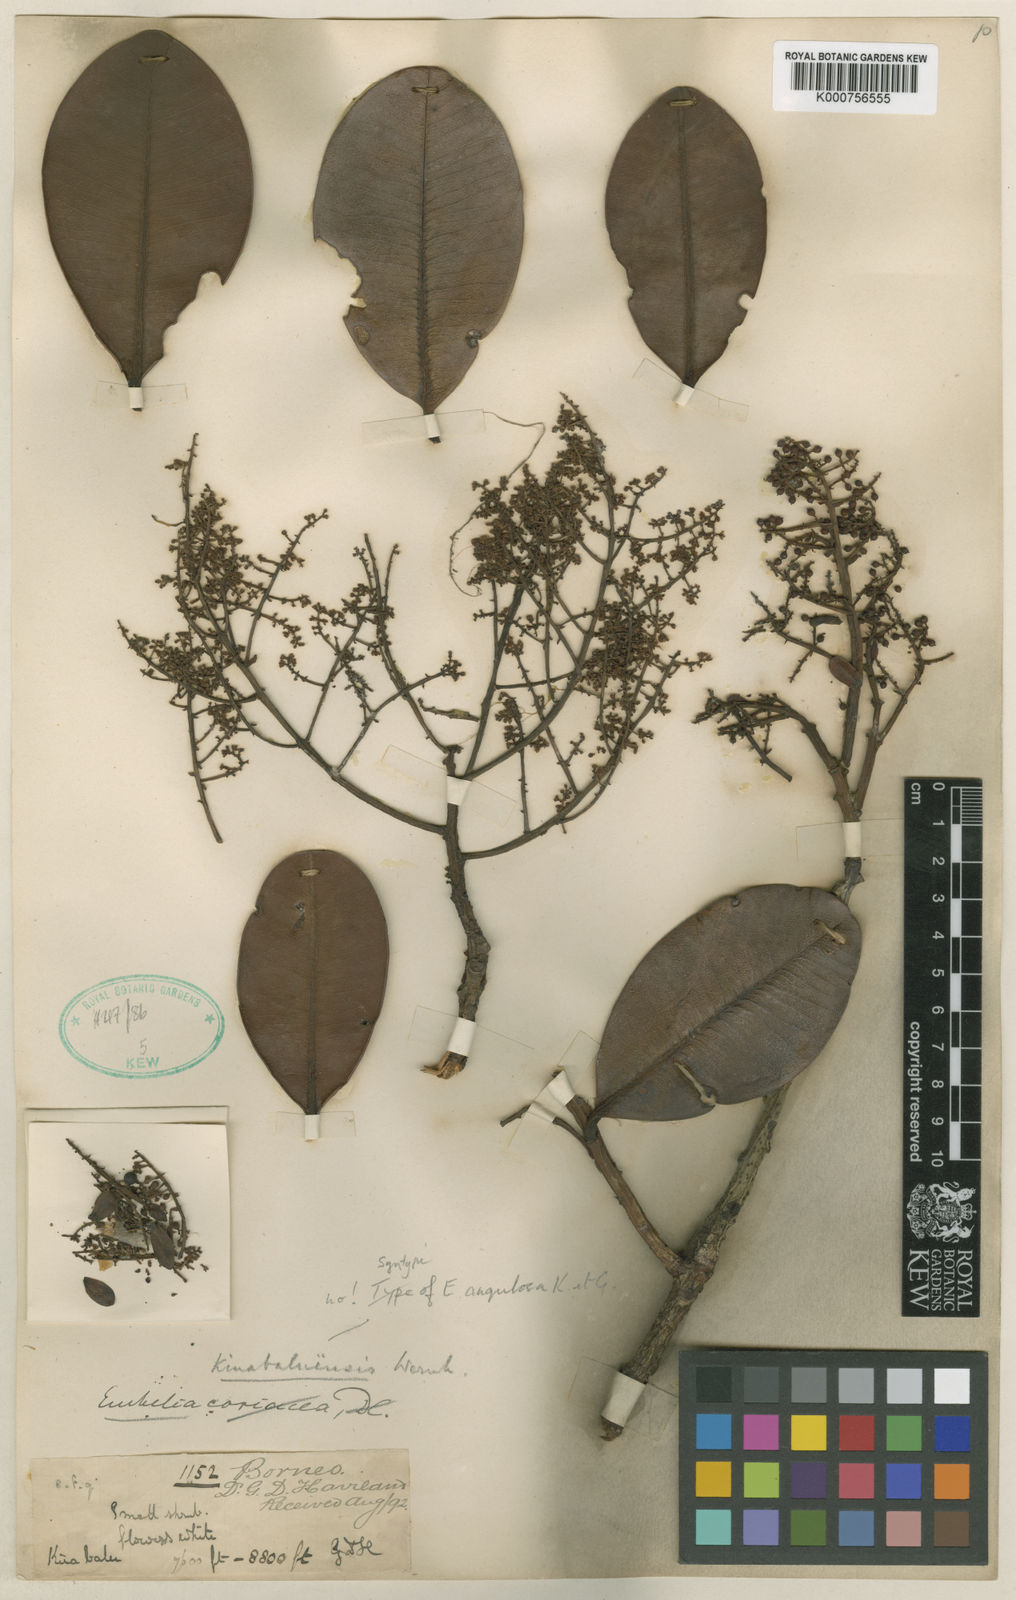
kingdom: Plantae
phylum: Tracheophyta
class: Magnoliopsida
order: Ericales
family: Primulaceae
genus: Embelia
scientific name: Embelia angulosa
